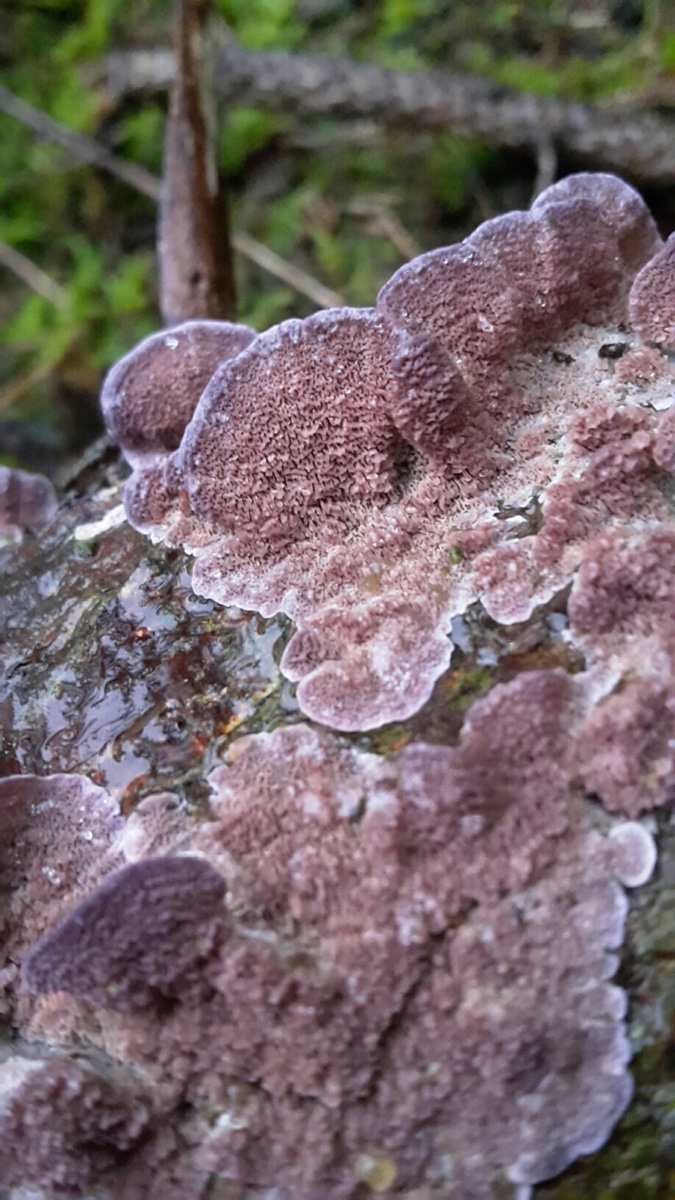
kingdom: Fungi
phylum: Basidiomycota
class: Agaricomycetes
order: Hymenochaetales
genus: Trichaptum
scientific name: Trichaptum abietinum
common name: almindelig violporesvamp
